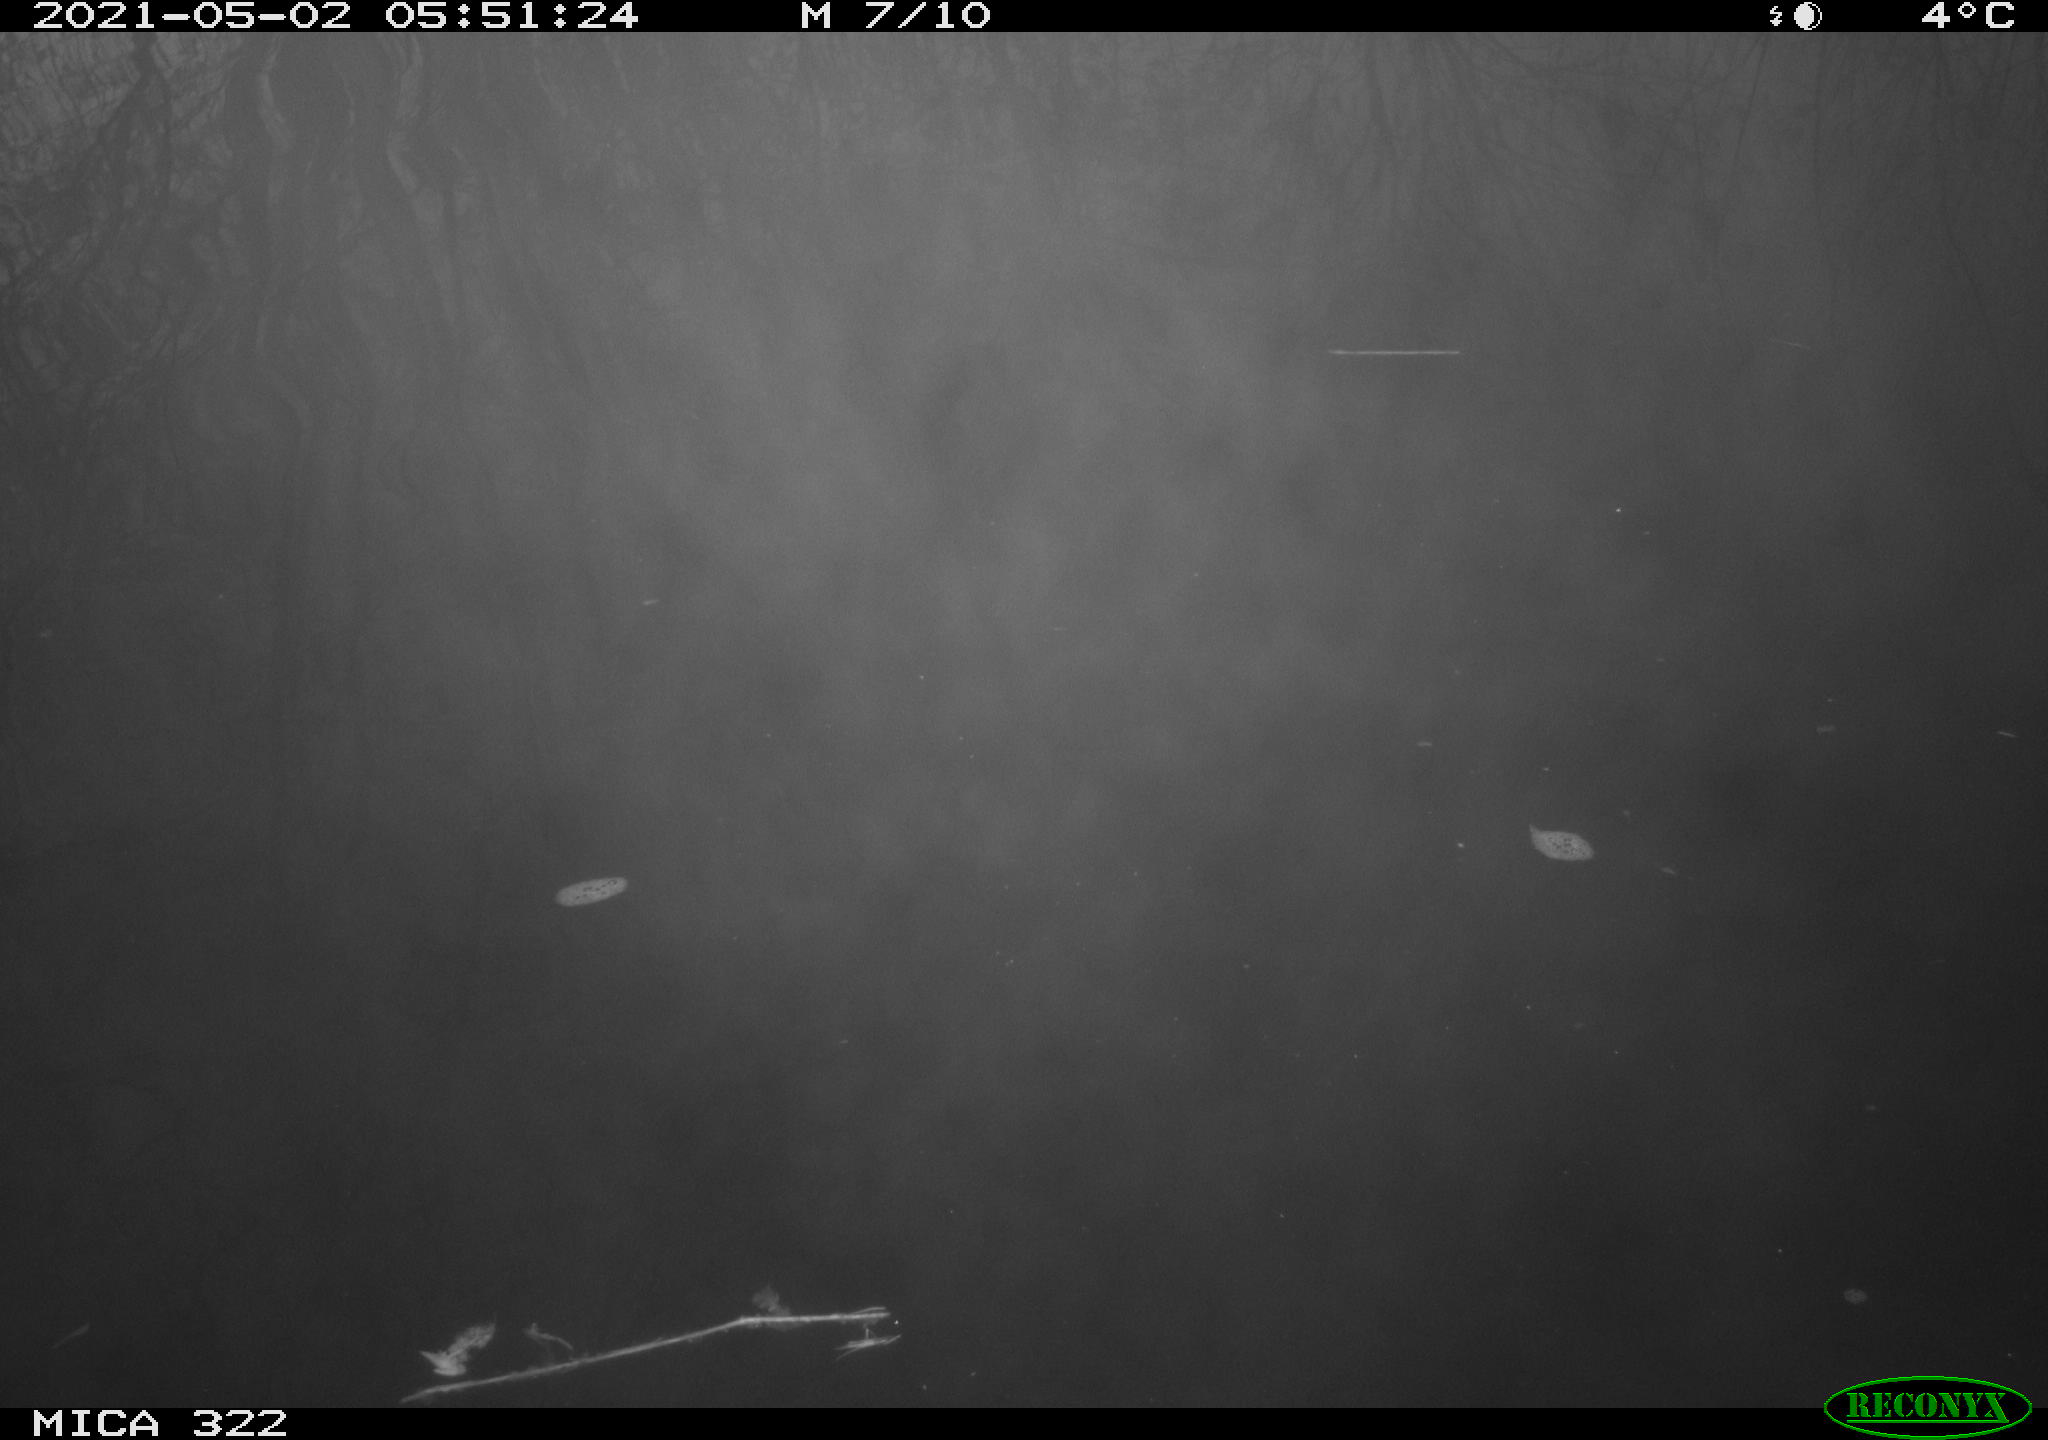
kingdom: Animalia
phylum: Chordata
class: Aves
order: Gruiformes
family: Rallidae
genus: Fulica
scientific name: Fulica atra
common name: Eurasian coot
